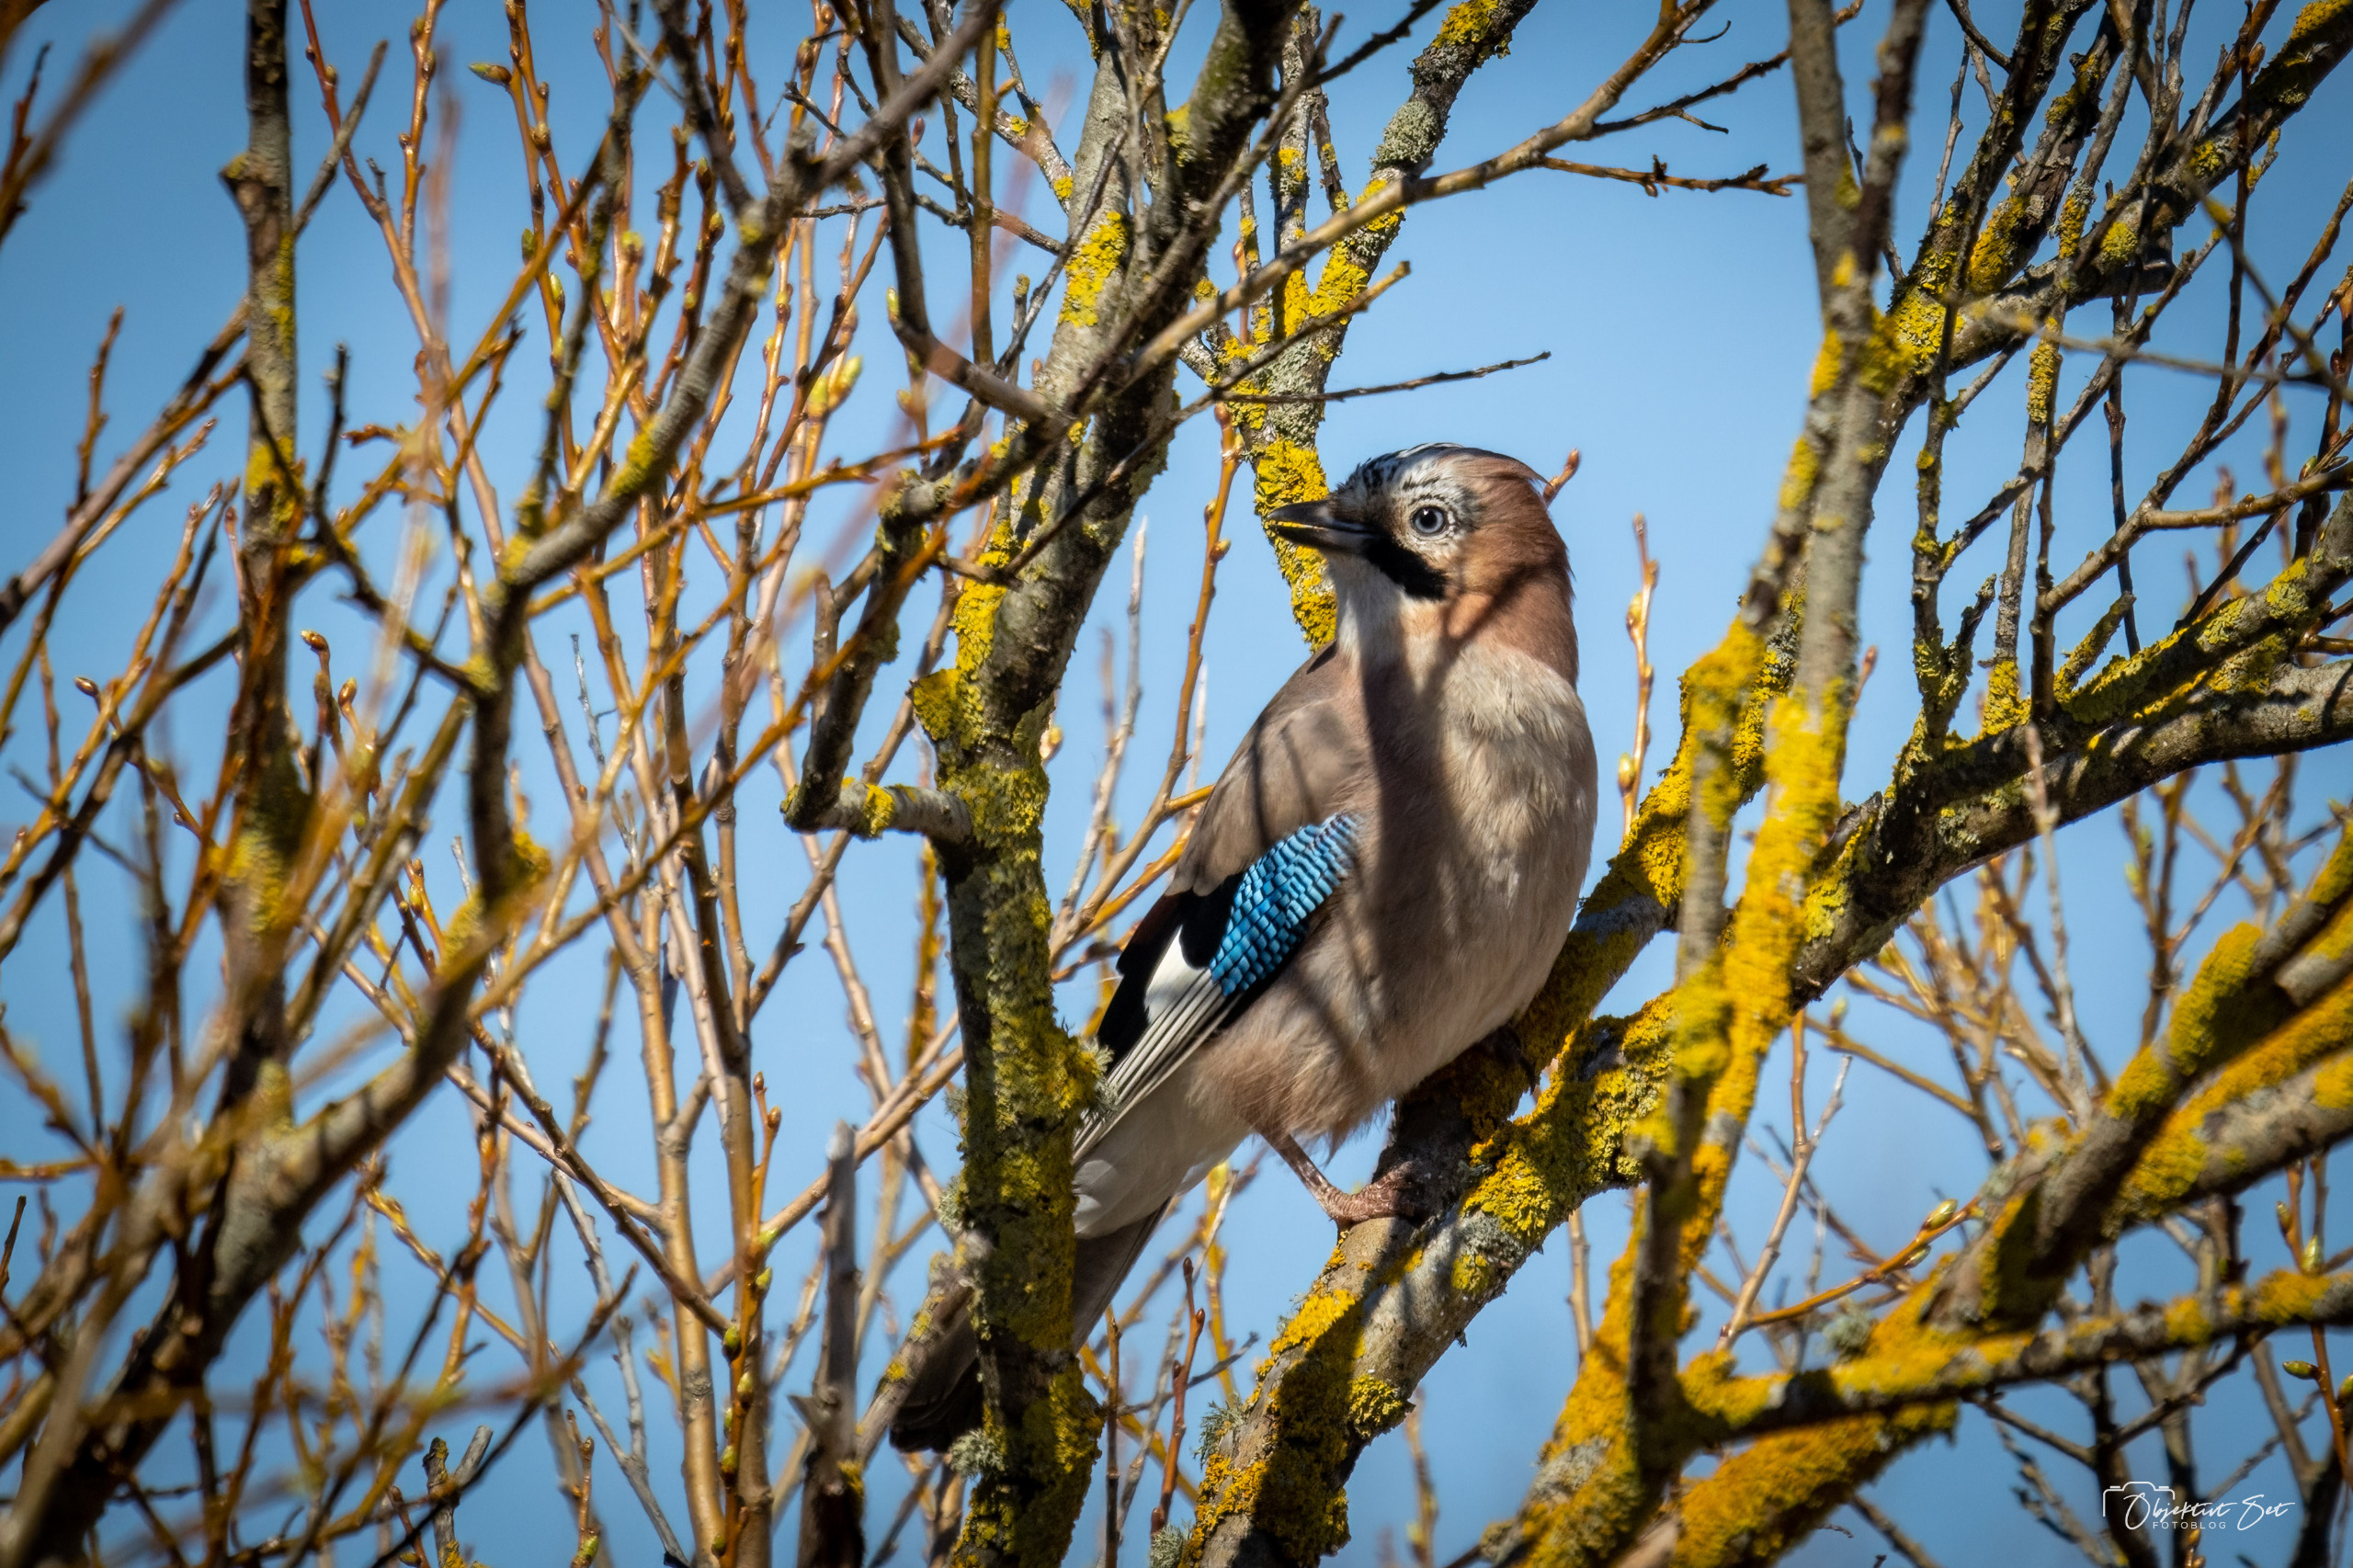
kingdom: Animalia
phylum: Chordata
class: Aves
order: Passeriformes
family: Corvidae
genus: Garrulus
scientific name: Garrulus glandarius
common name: Skovskade
